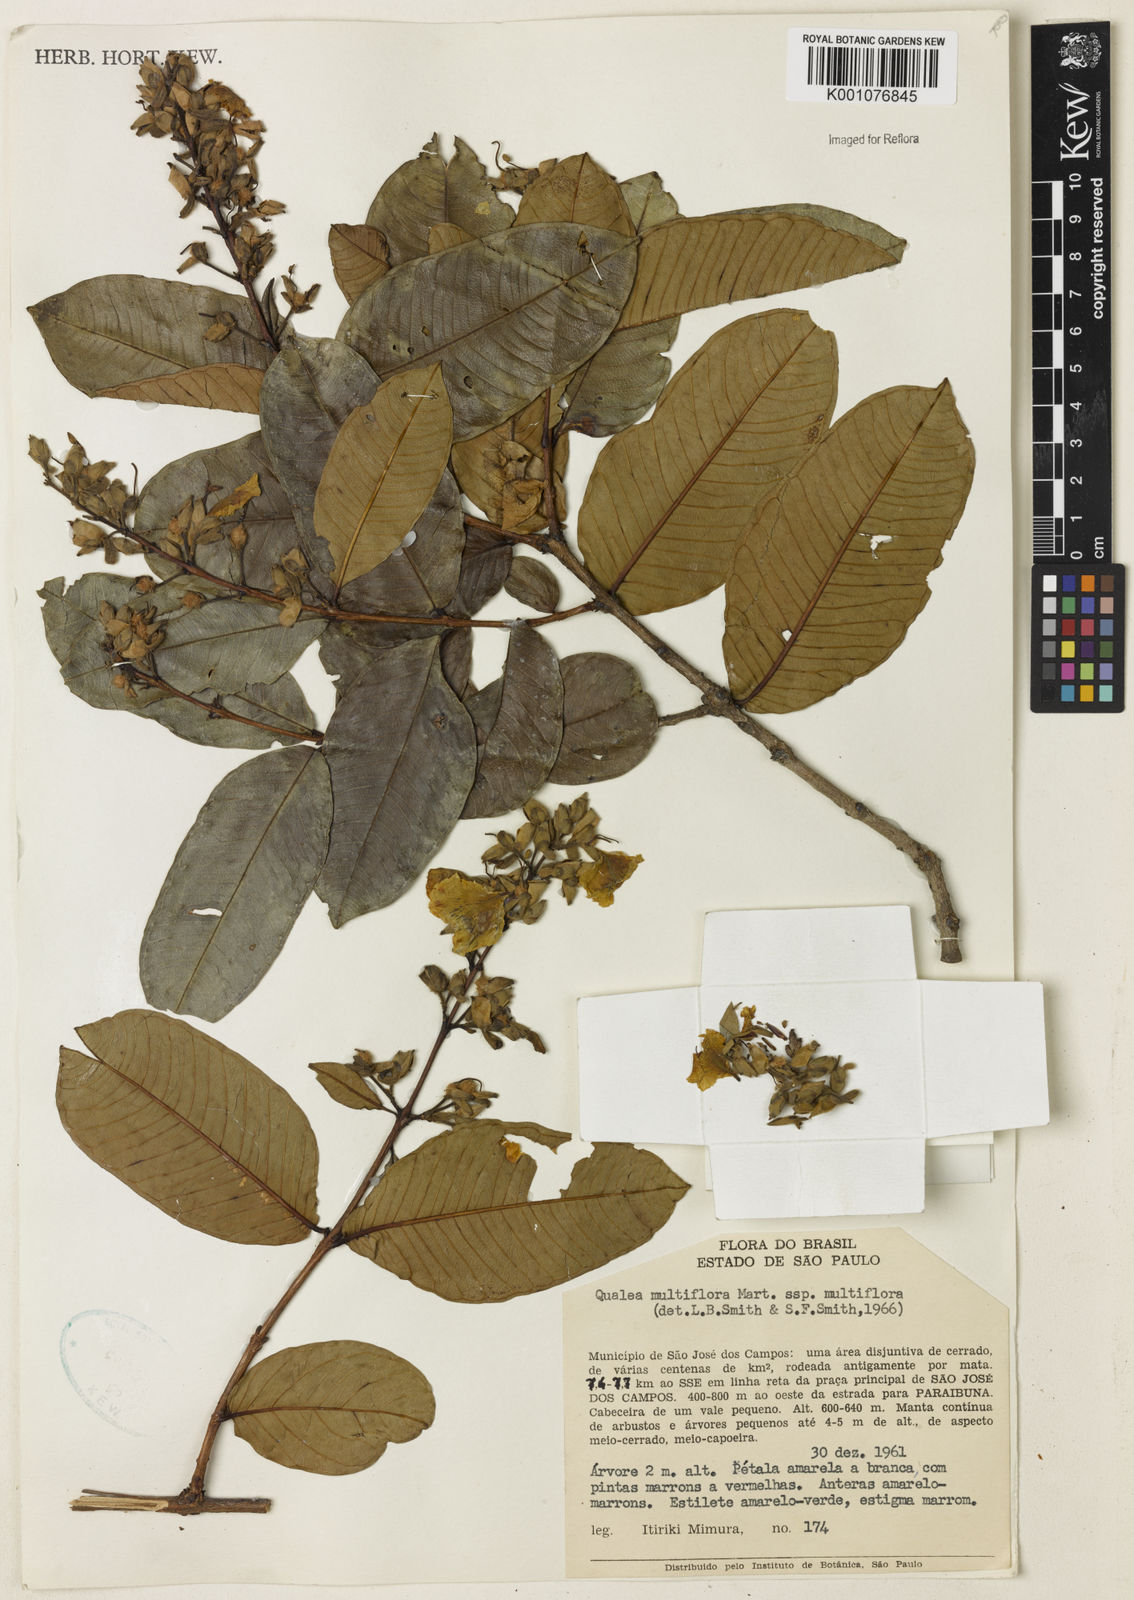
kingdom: Plantae
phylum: Tracheophyta
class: Magnoliopsida
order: Myrtales
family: Vochysiaceae
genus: Qualea
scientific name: Qualea multiflora
